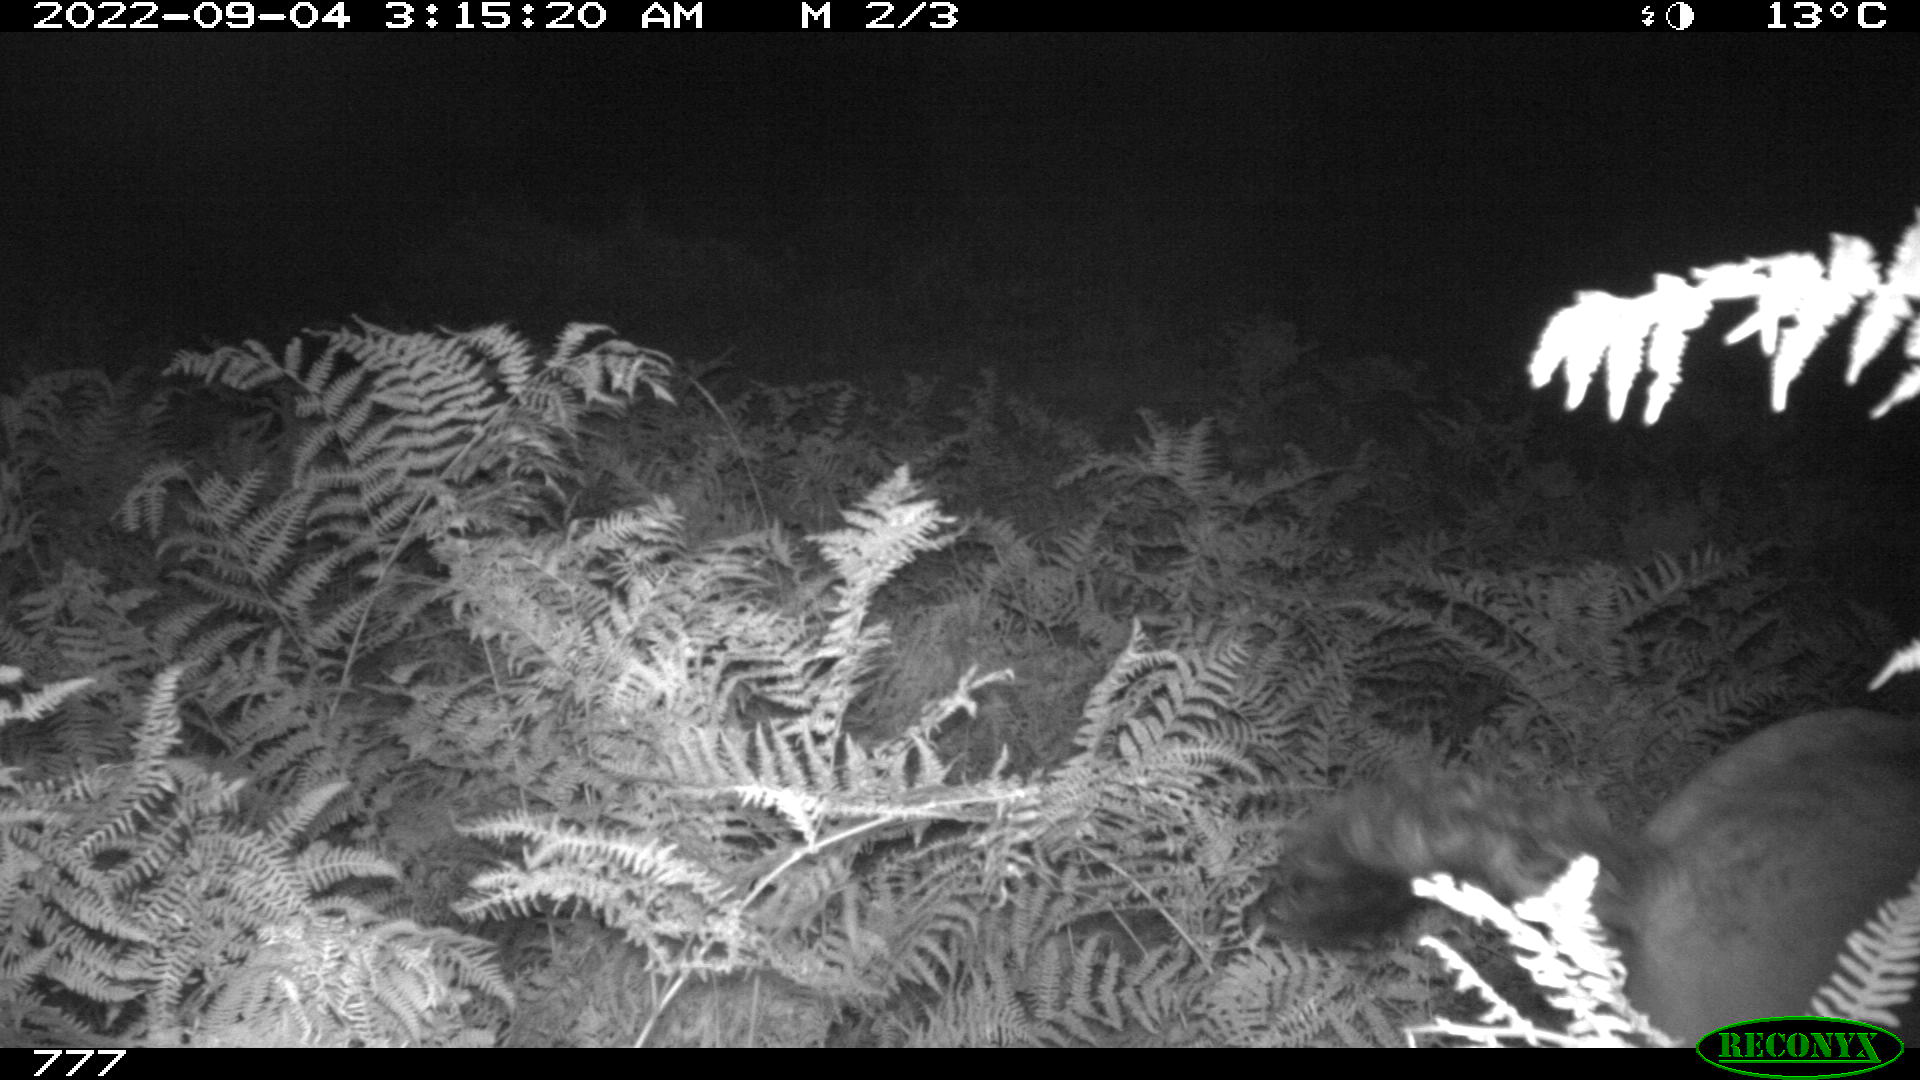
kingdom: Animalia
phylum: Chordata
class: Mammalia
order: Perissodactyla
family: Equidae
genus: Equus
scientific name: Equus caballus
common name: Horse
